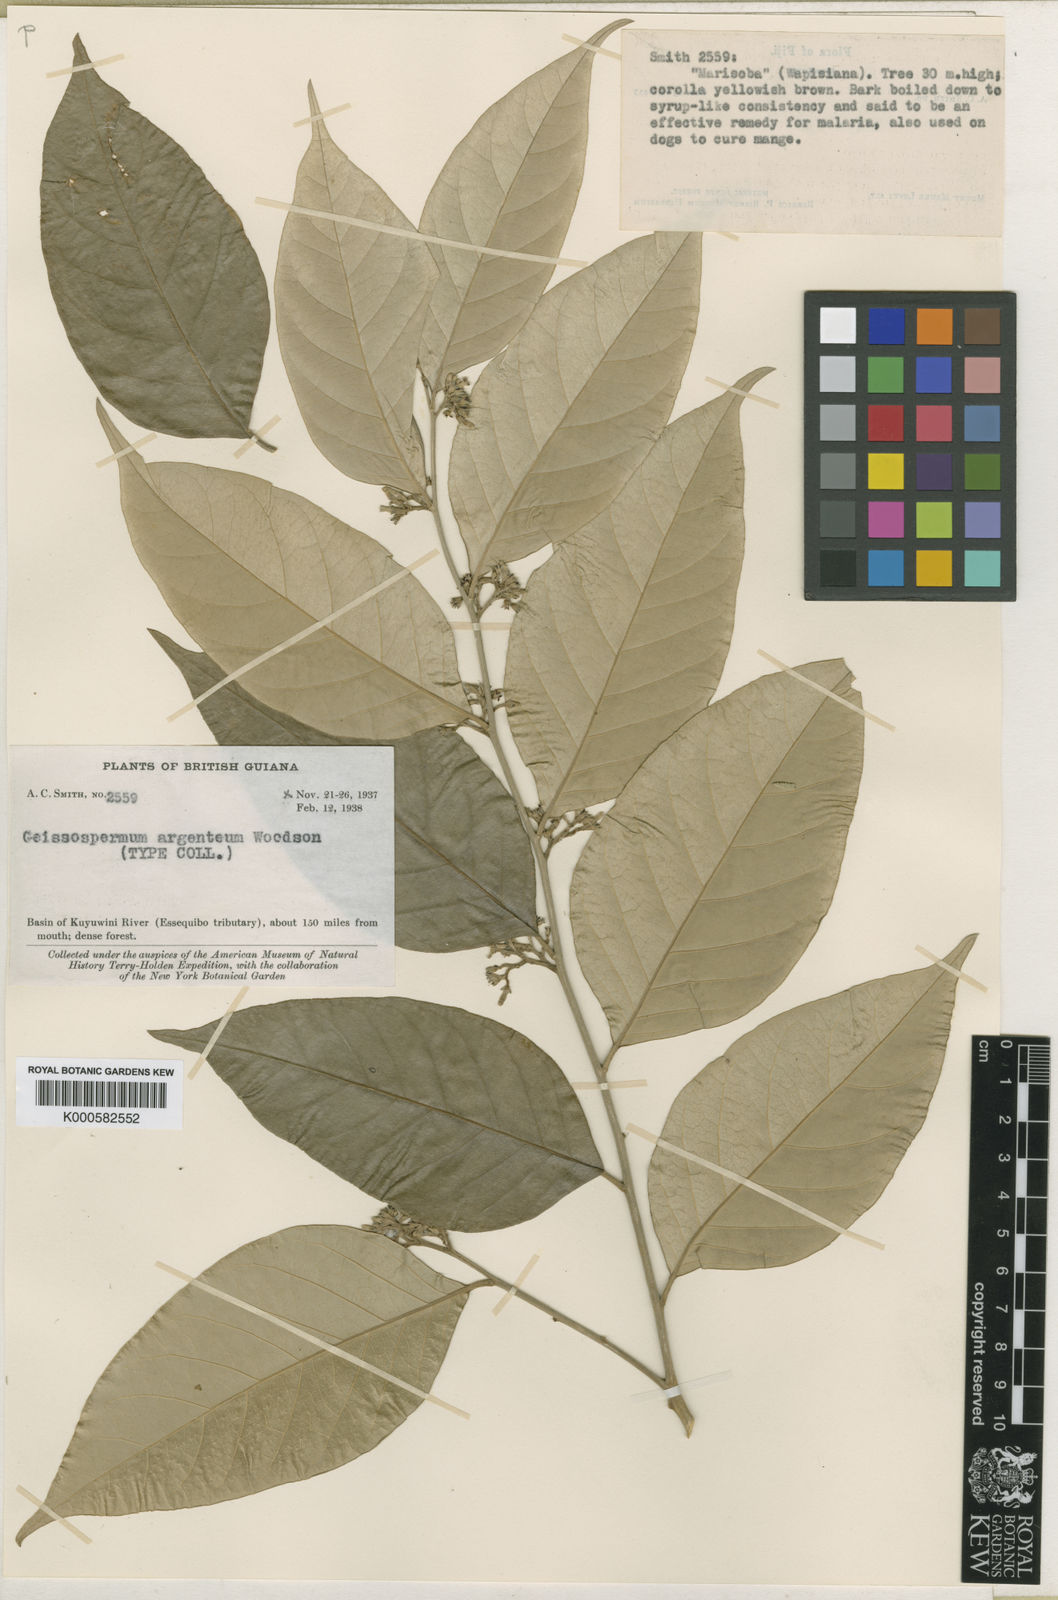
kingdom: Plantae
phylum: Tracheophyta
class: Magnoliopsida
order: Gentianales
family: Apocynaceae
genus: Geissospermum
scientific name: Geissospermum argenteum
